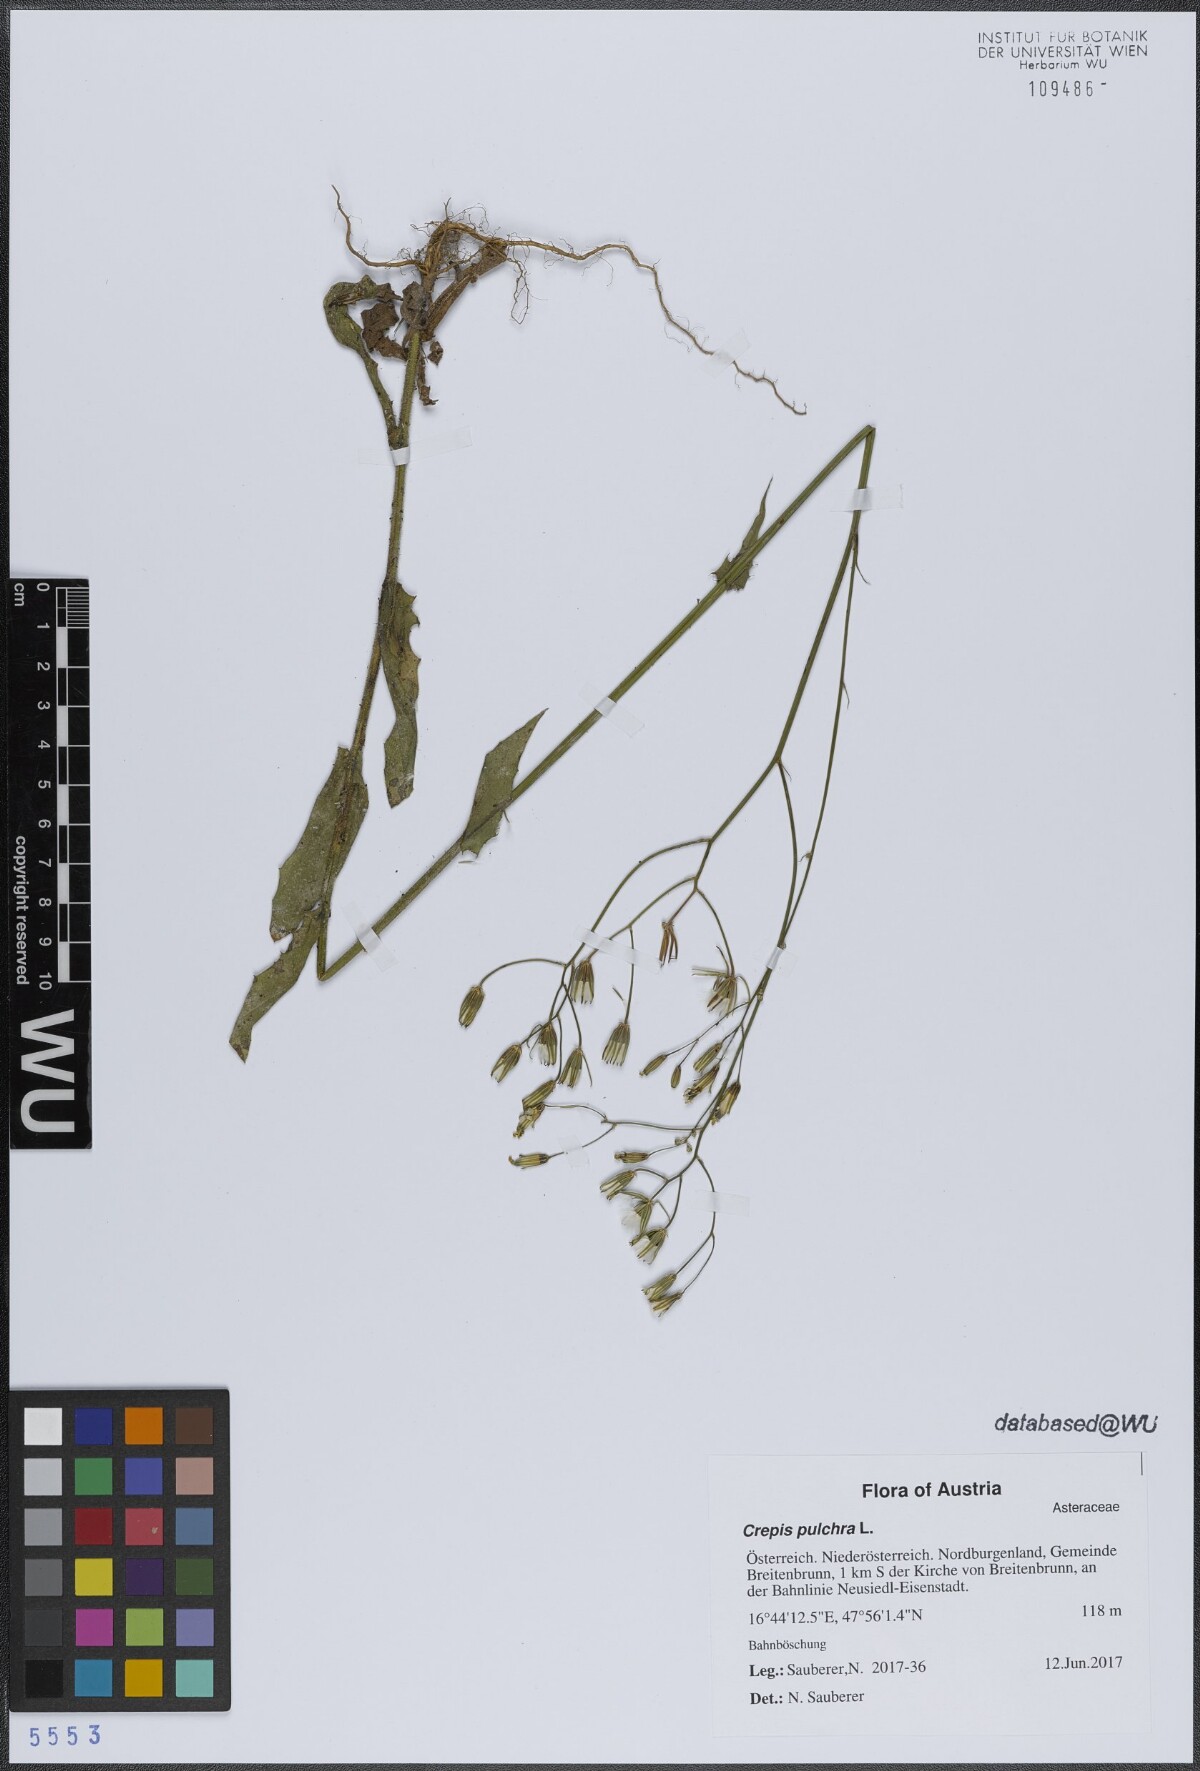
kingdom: Plantae
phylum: Tracheophyta
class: Magnoliopsida
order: Asterales
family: Asteraceae
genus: Crepis
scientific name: Crepis pulchra
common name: Hawk's-beard
